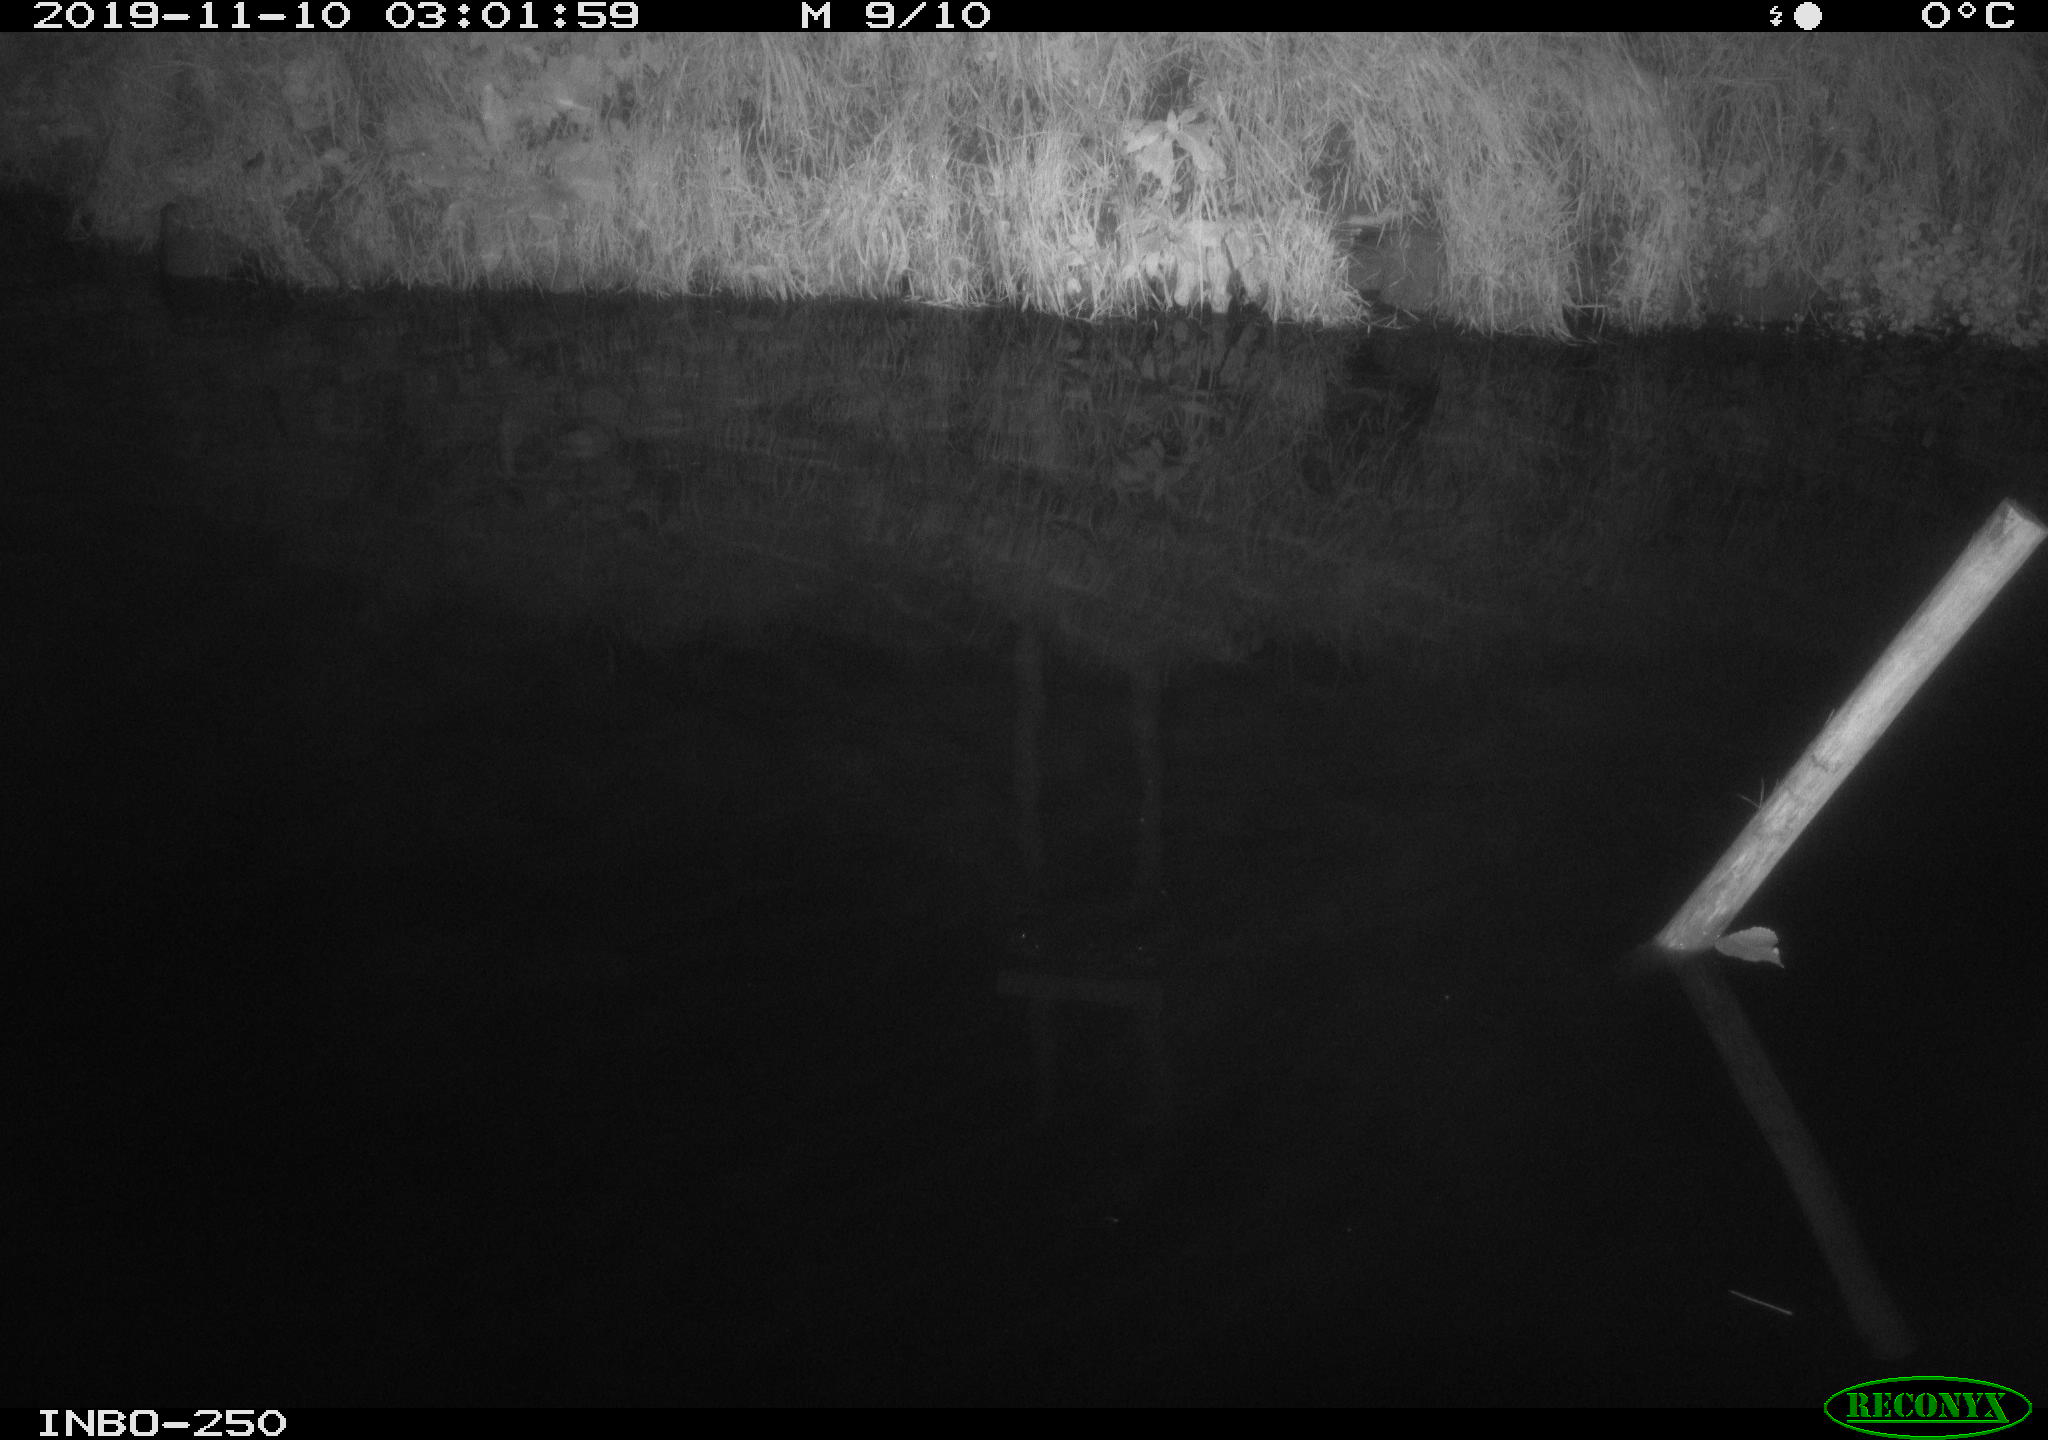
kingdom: Animalia
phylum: Chordata
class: Aves
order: Anseriformes
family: Anatidae
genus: Anas
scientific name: Anas platyrhynchos
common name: Mallard
